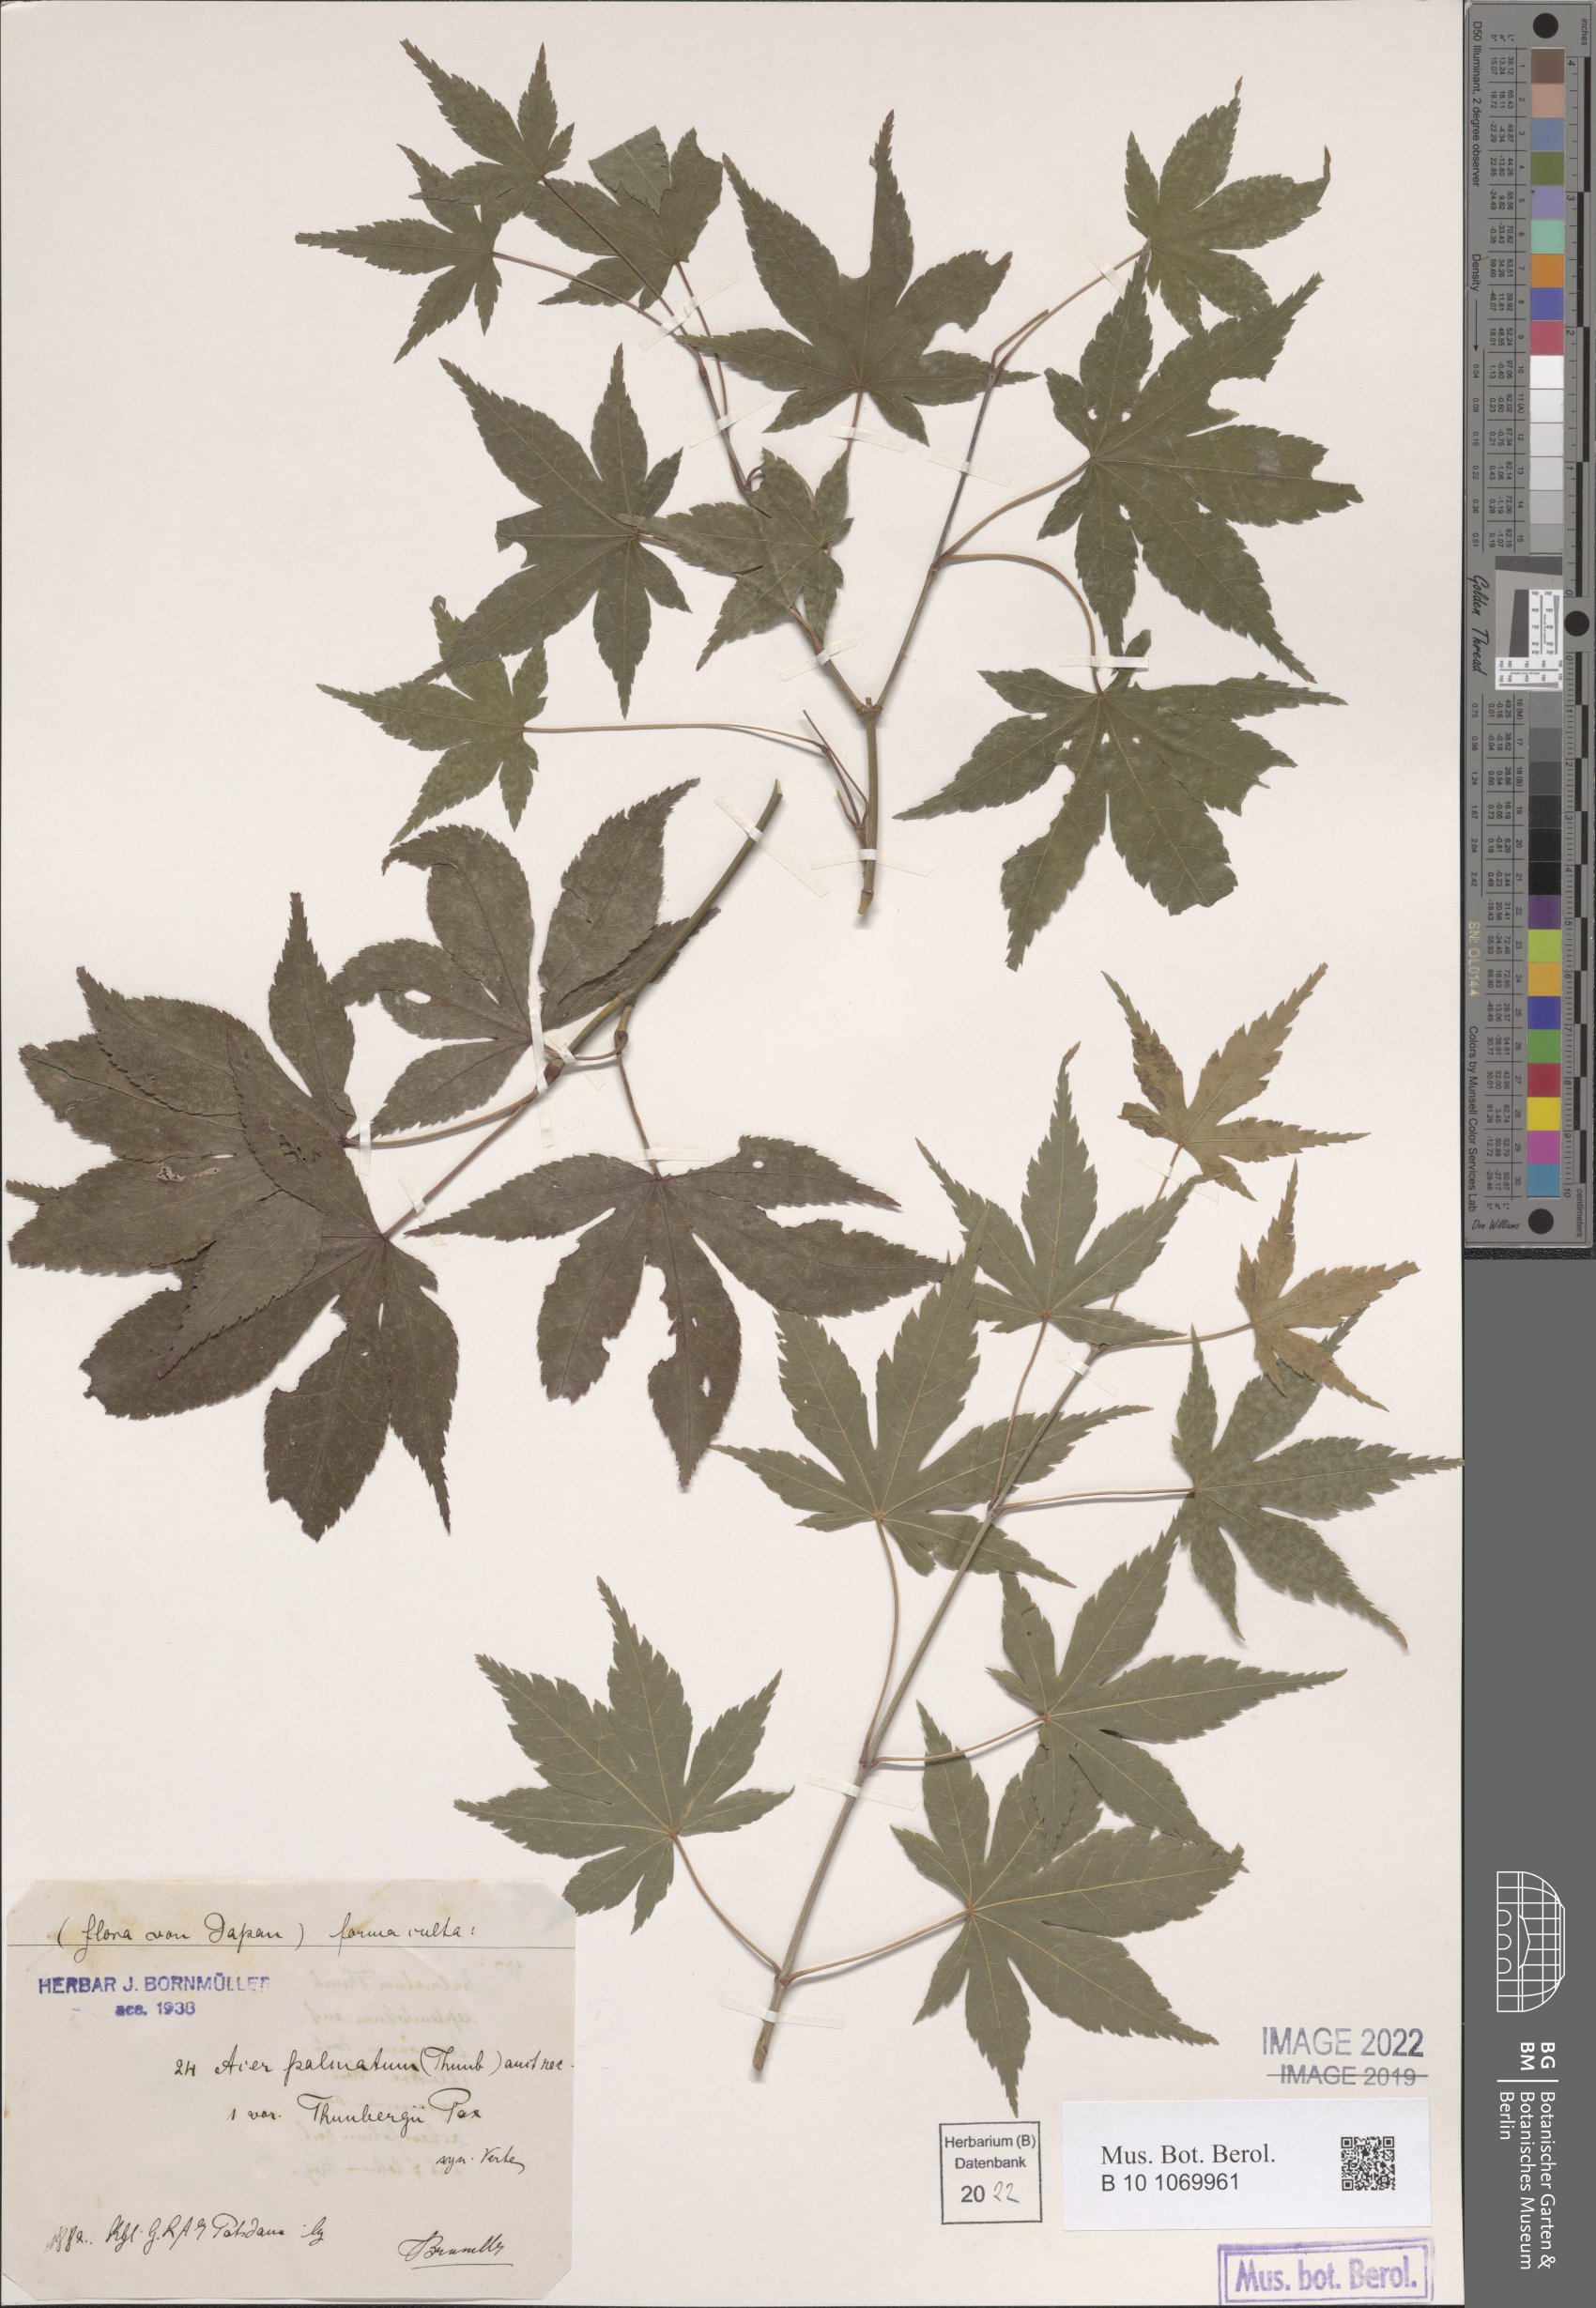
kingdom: Plantae
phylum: Tracheophyta
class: Magnoliopsida
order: Sapindales
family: Sapindaceae
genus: Acer
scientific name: Acer palmatum
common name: Japanese maple
